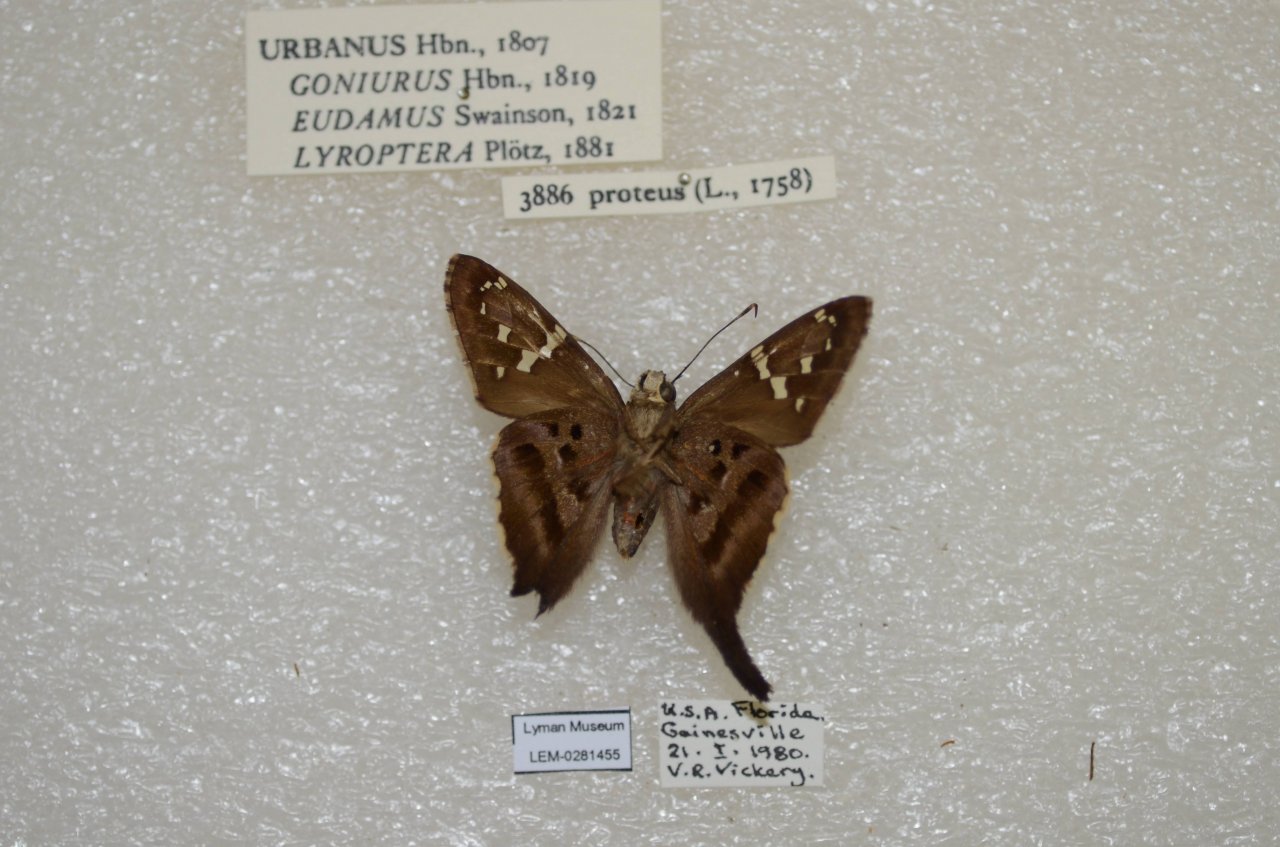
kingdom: Animalia
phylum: Arthropoda
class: Insecta
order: Lepidoptera
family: Hesperiidae
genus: Urbanus
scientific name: Urbanus proteus
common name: Long-tailed Skipper
